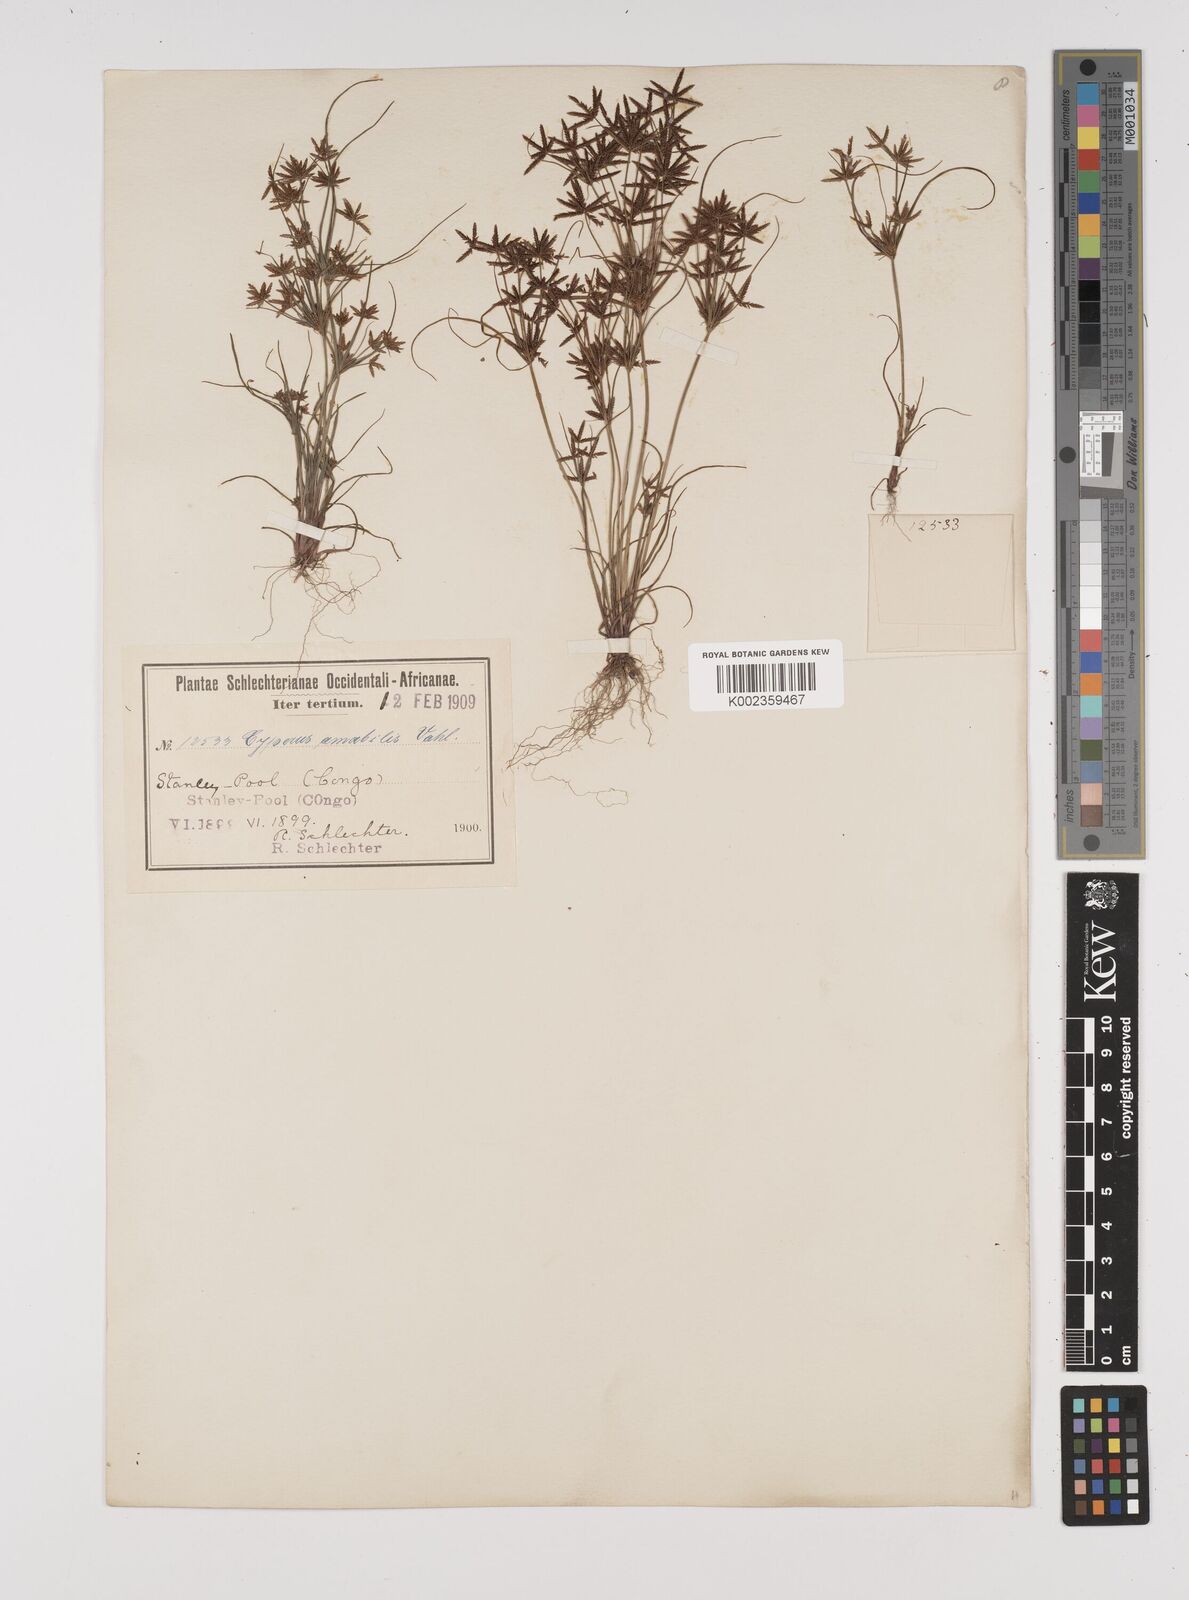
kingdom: Plantae
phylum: Tracheophyta
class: Liliopsida
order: Poales
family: Cyperaceae
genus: Cyperus
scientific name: Cyperus amabilis
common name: Foothill flat sedge
